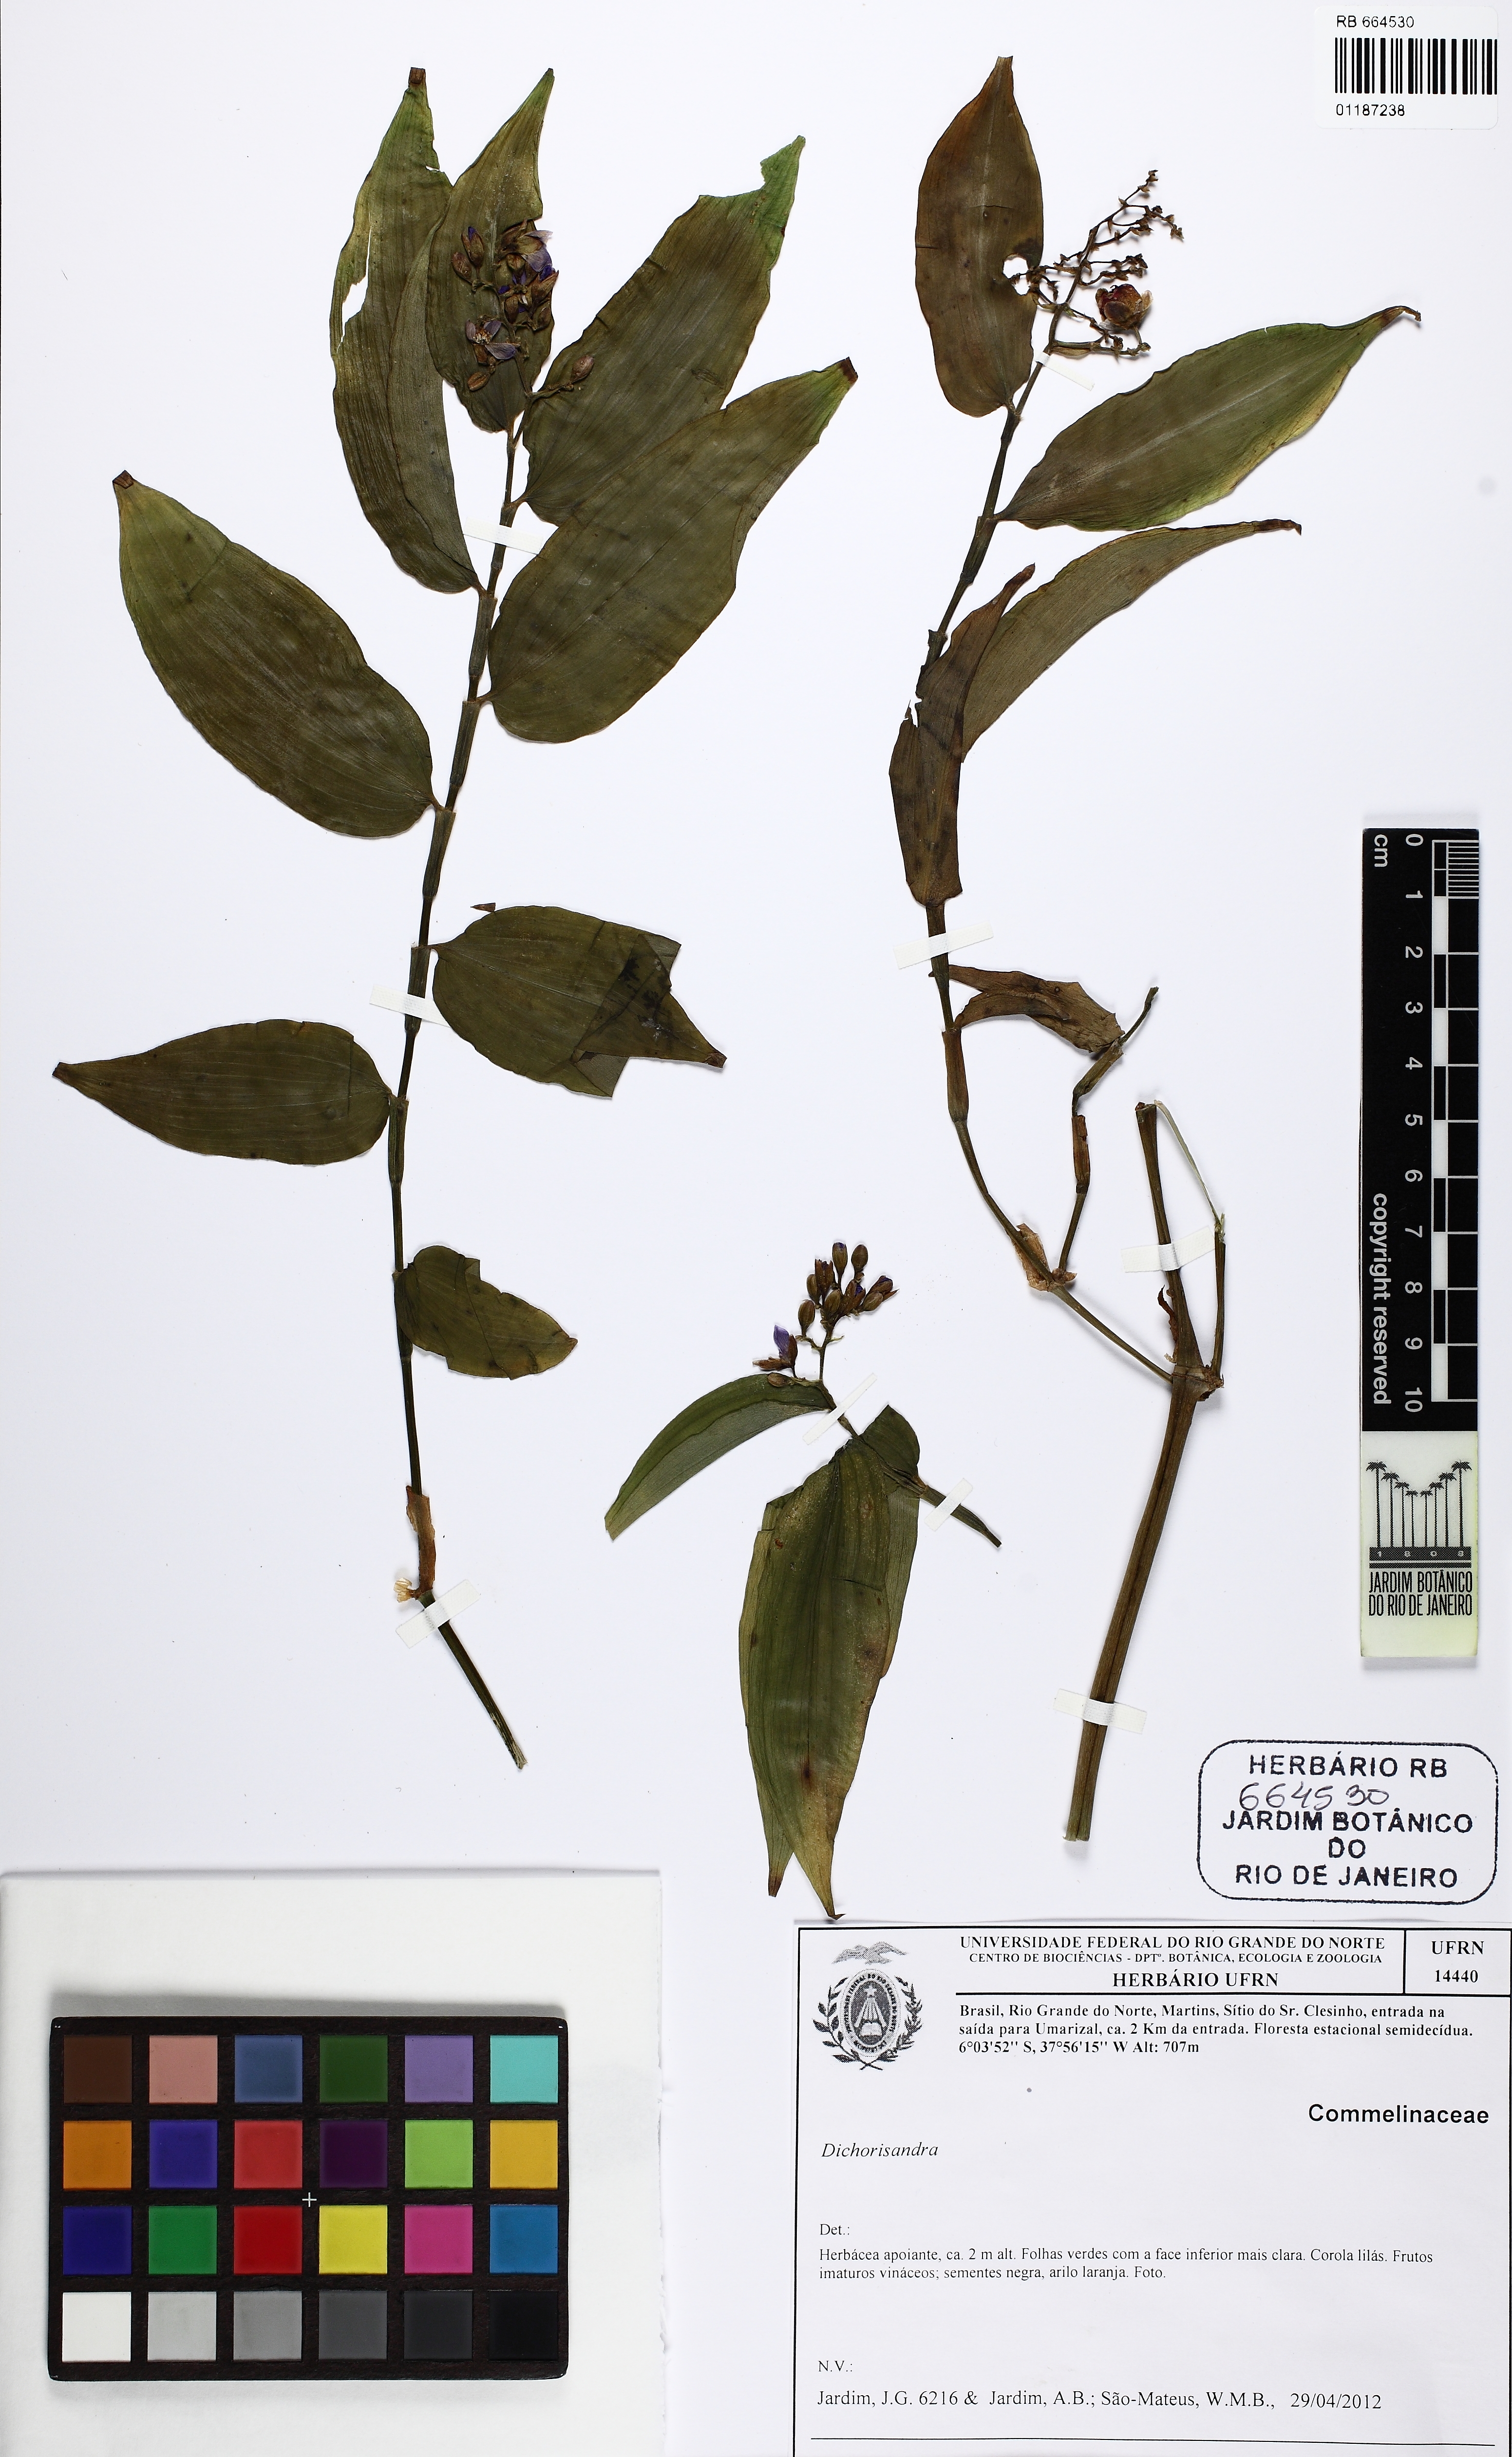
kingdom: Plantae
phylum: Tracheophyta
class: Liliopsida
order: Commelinales
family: Commelinaceae
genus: Dichorisandra
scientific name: Dichorisandra hexandra
